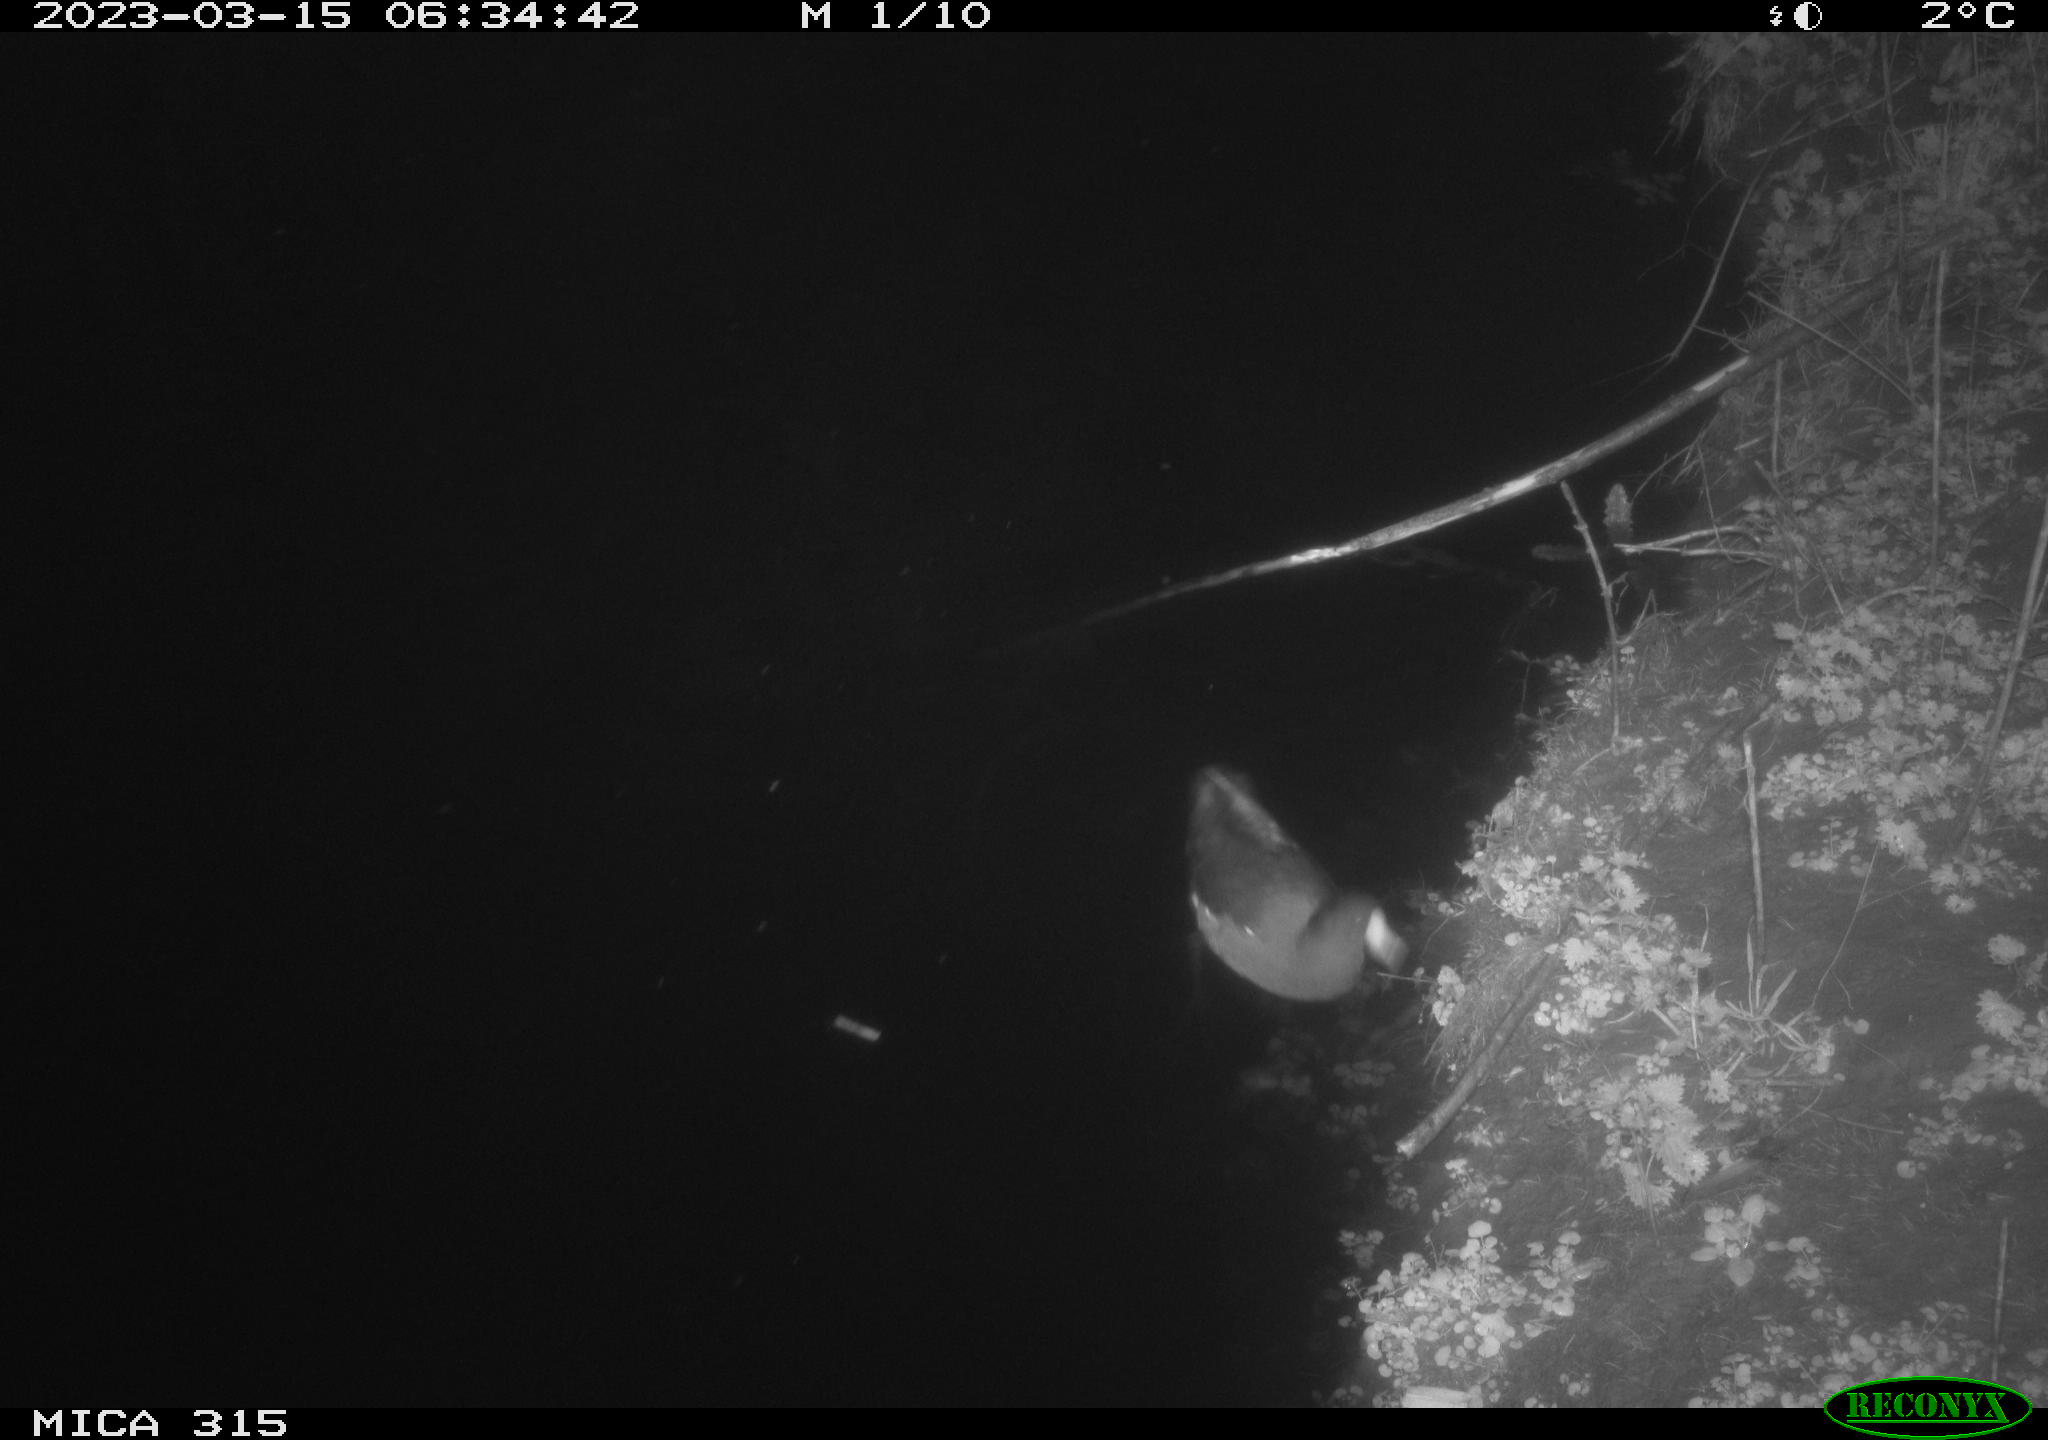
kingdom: Animalia
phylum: Chordata
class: Aves
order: Gruiformes
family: Rallidae
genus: Gallinula
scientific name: Gallinula chloropus
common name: Common moorhen
